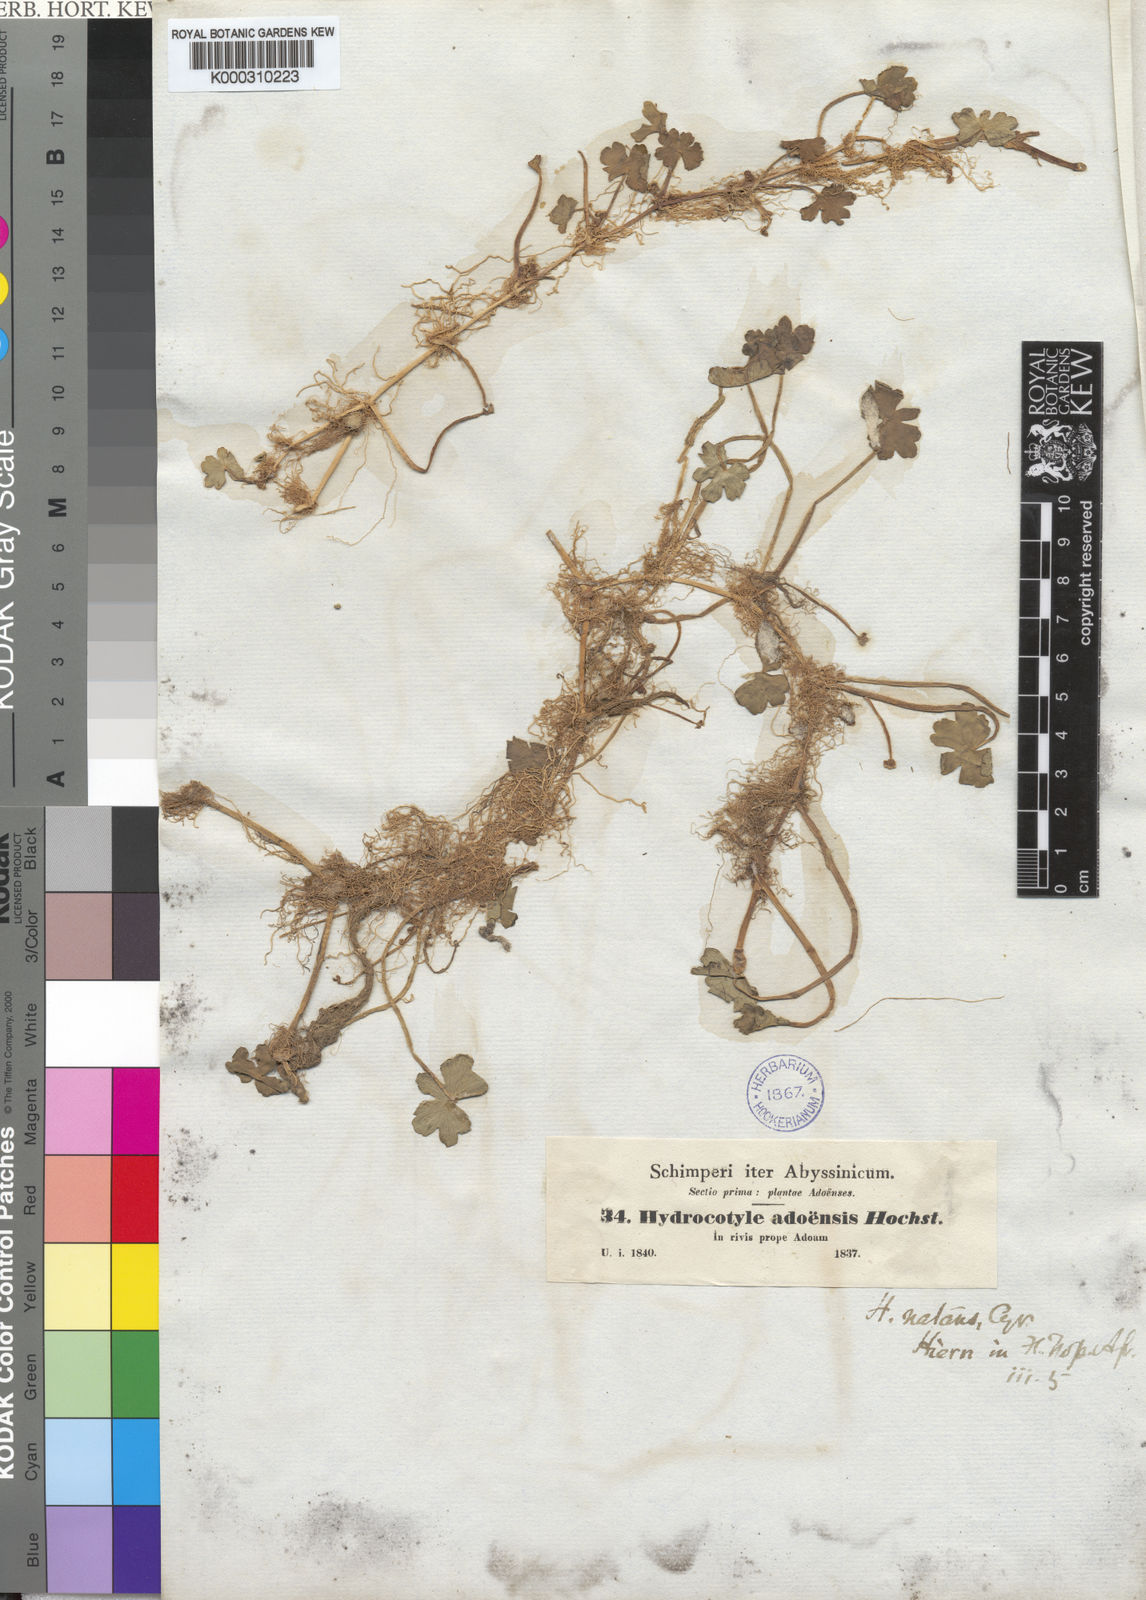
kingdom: Plantae
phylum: Tracheophyta
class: Magnoliopsida
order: Apiales
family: Araliaceae
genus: Hydrocotyle
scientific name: Hydrocotyle ranunculoides
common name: Floating pennywort
